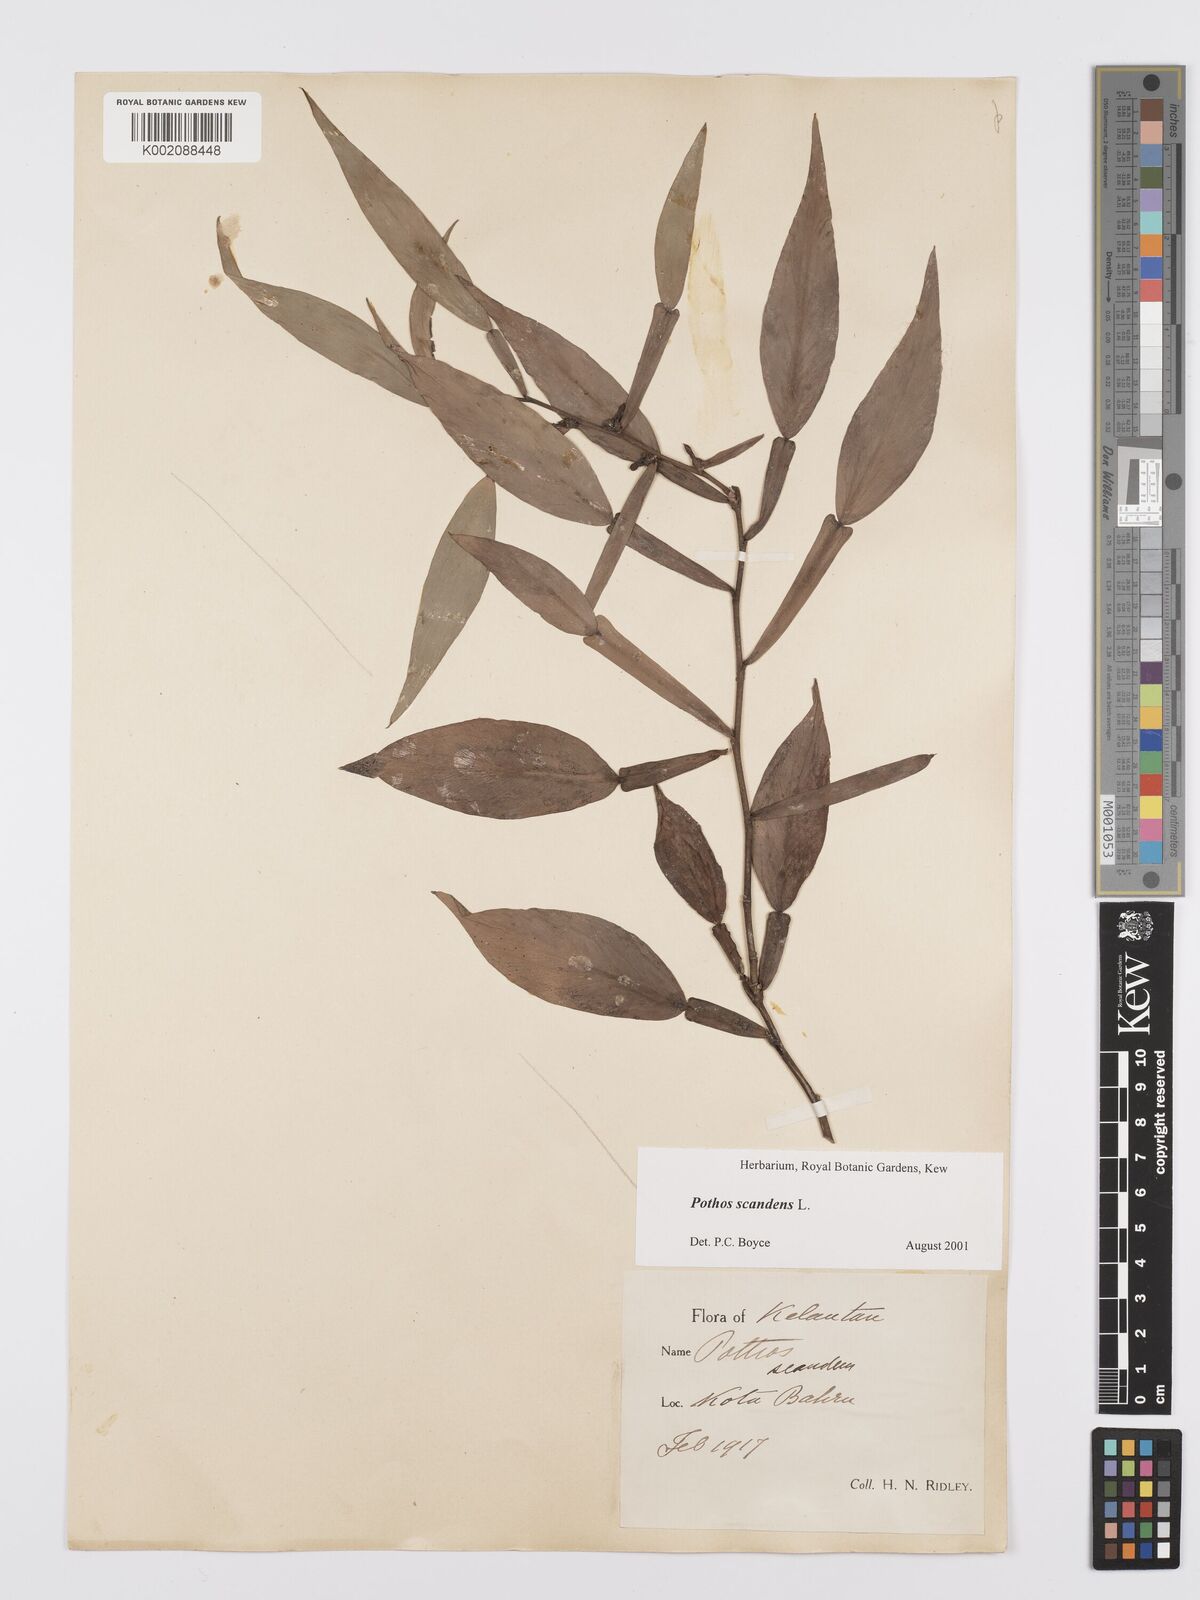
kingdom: Plantae
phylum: Tracheophyta
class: Liliopsida
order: Alismatales
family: Araceae
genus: Pothos
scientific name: Pothos scandens
